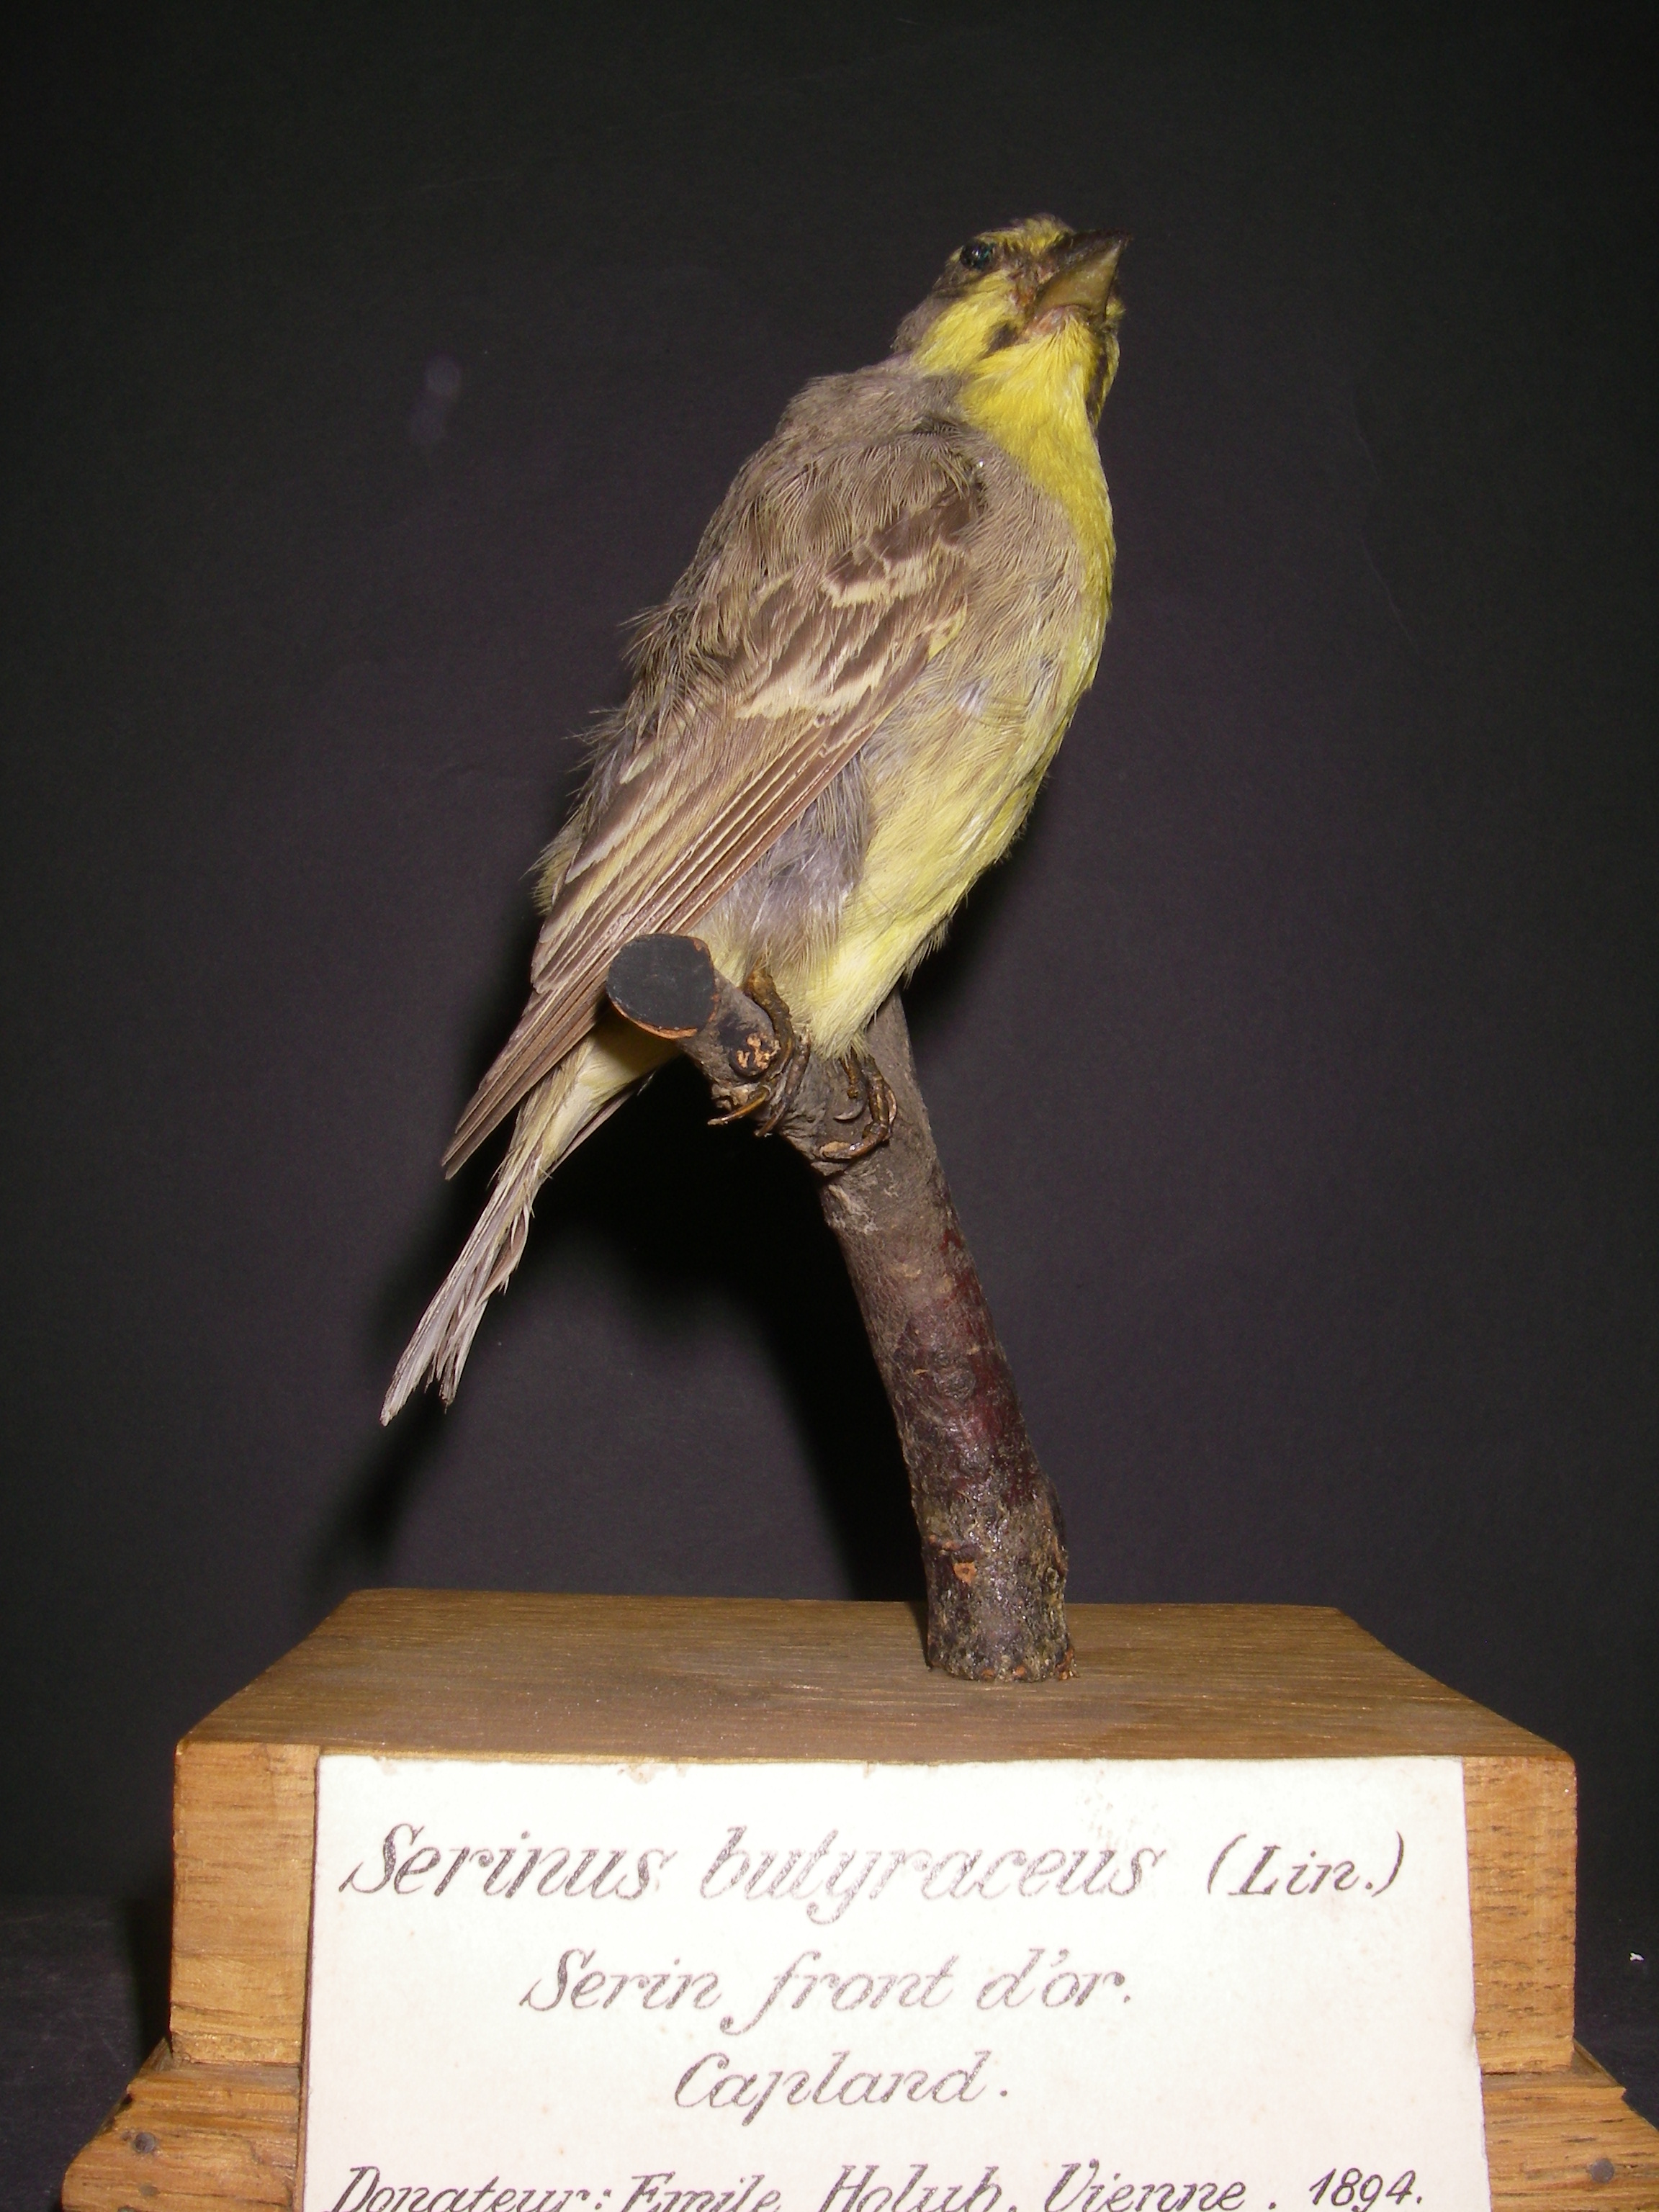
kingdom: Animalia
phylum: Chordata
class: Aves
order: Passeriformes
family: Fringillidae
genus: Crithagra
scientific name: Crithagra flaviventris
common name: Yellow canary
